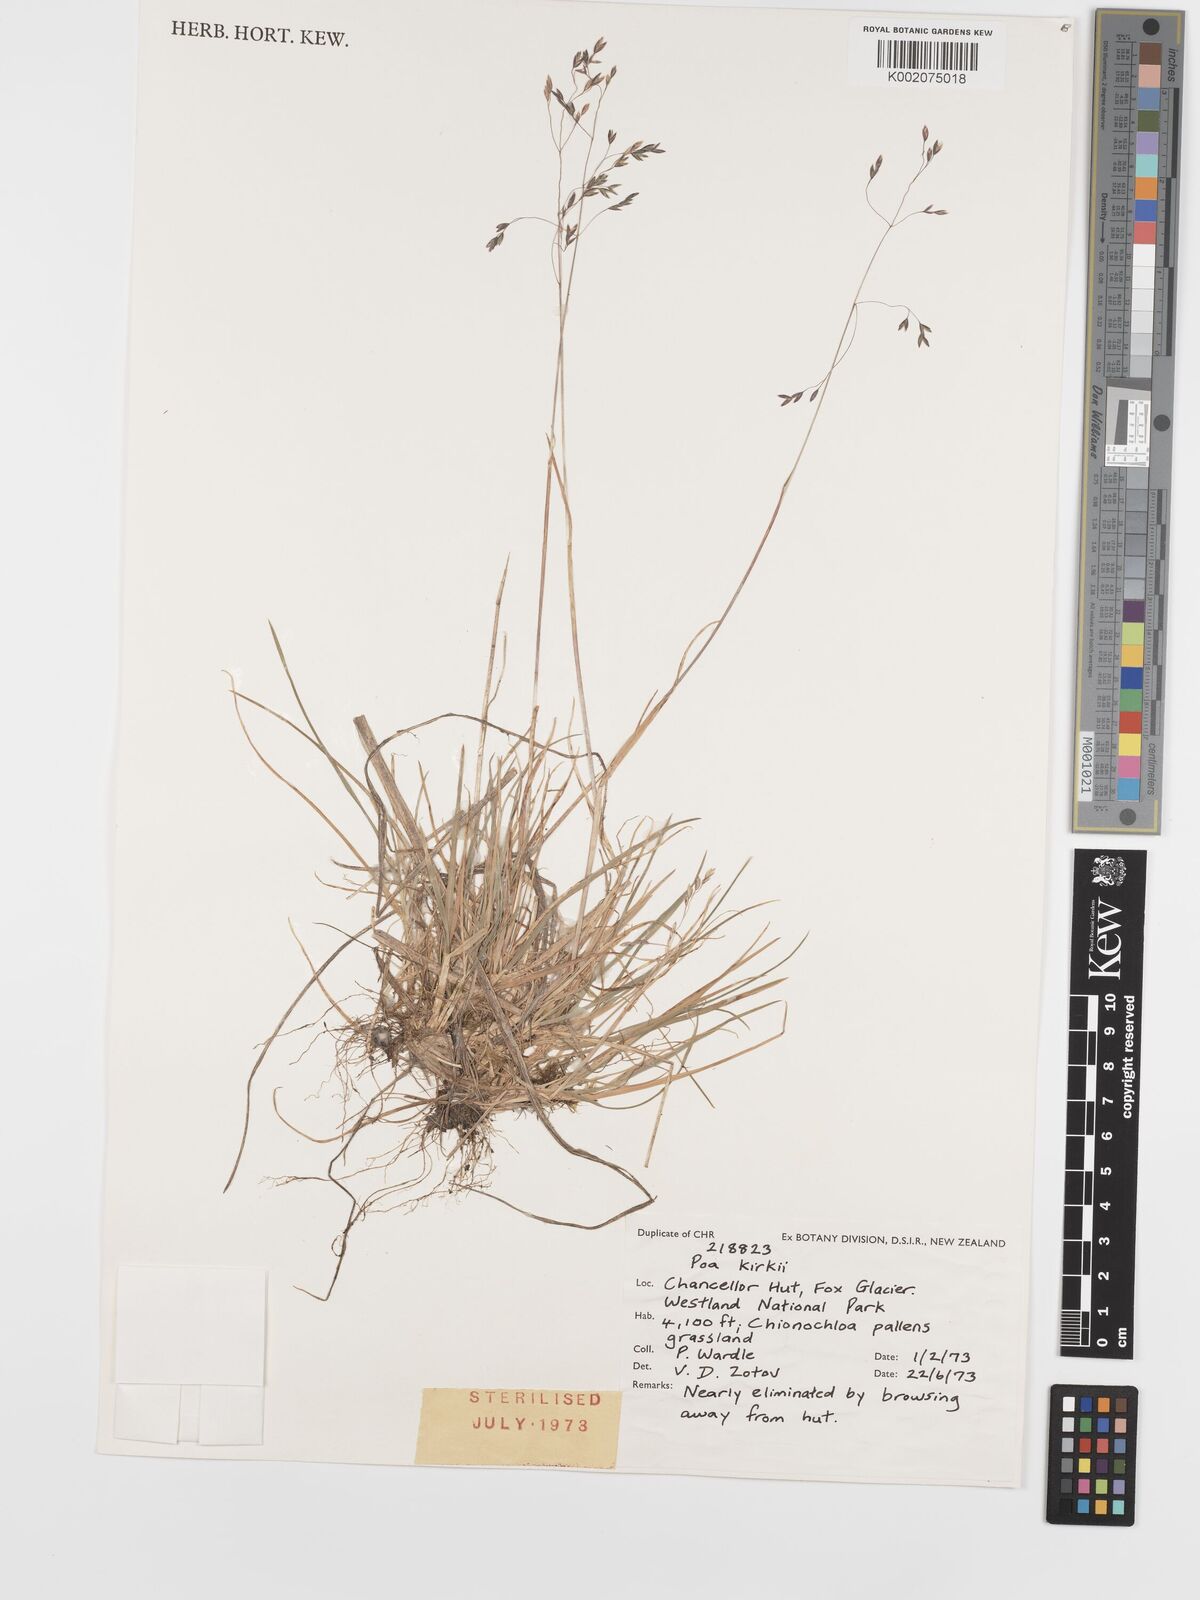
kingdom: Plantae
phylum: Tracheophyta
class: Liliopsida
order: Poales
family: Poaceae
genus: Poa
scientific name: Poa kirkii
